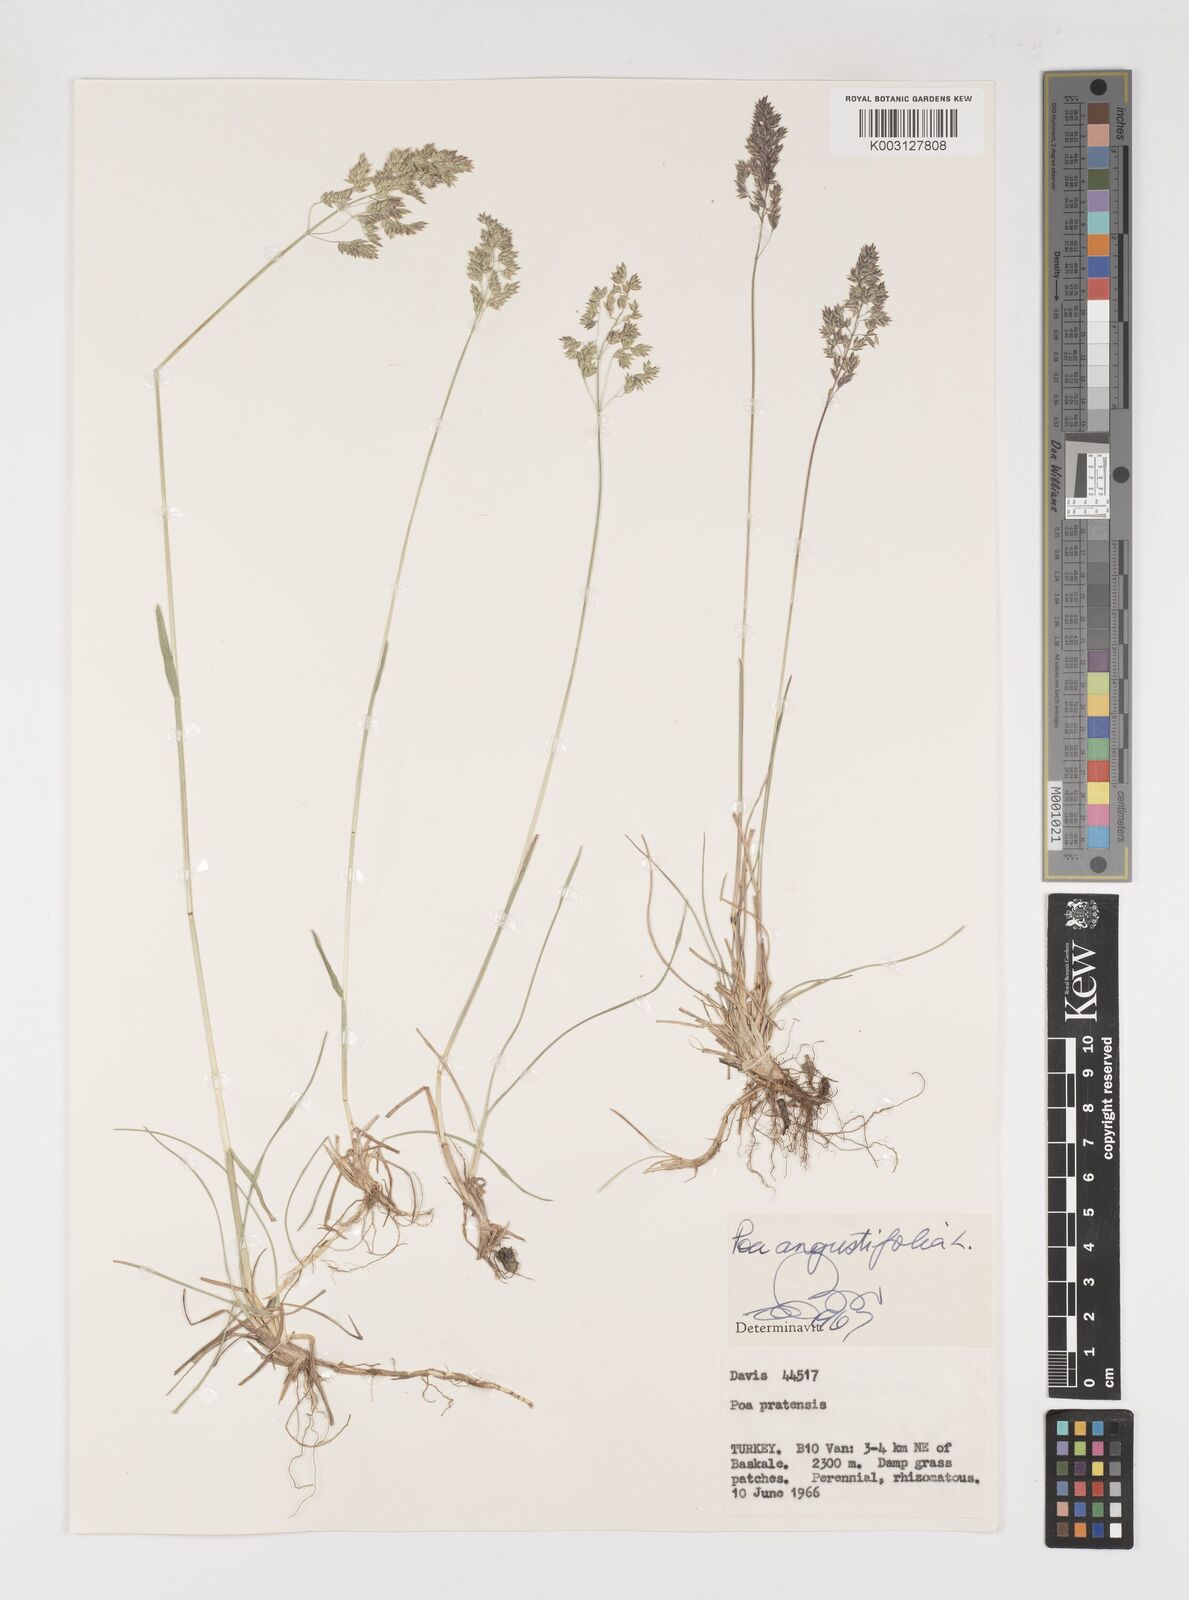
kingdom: Plantae
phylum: Tracheophyta
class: Liliopsida
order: Poales
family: Poaceae
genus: Poa
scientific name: Poa angustifolia
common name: Narrow-leaved meadow-grass
